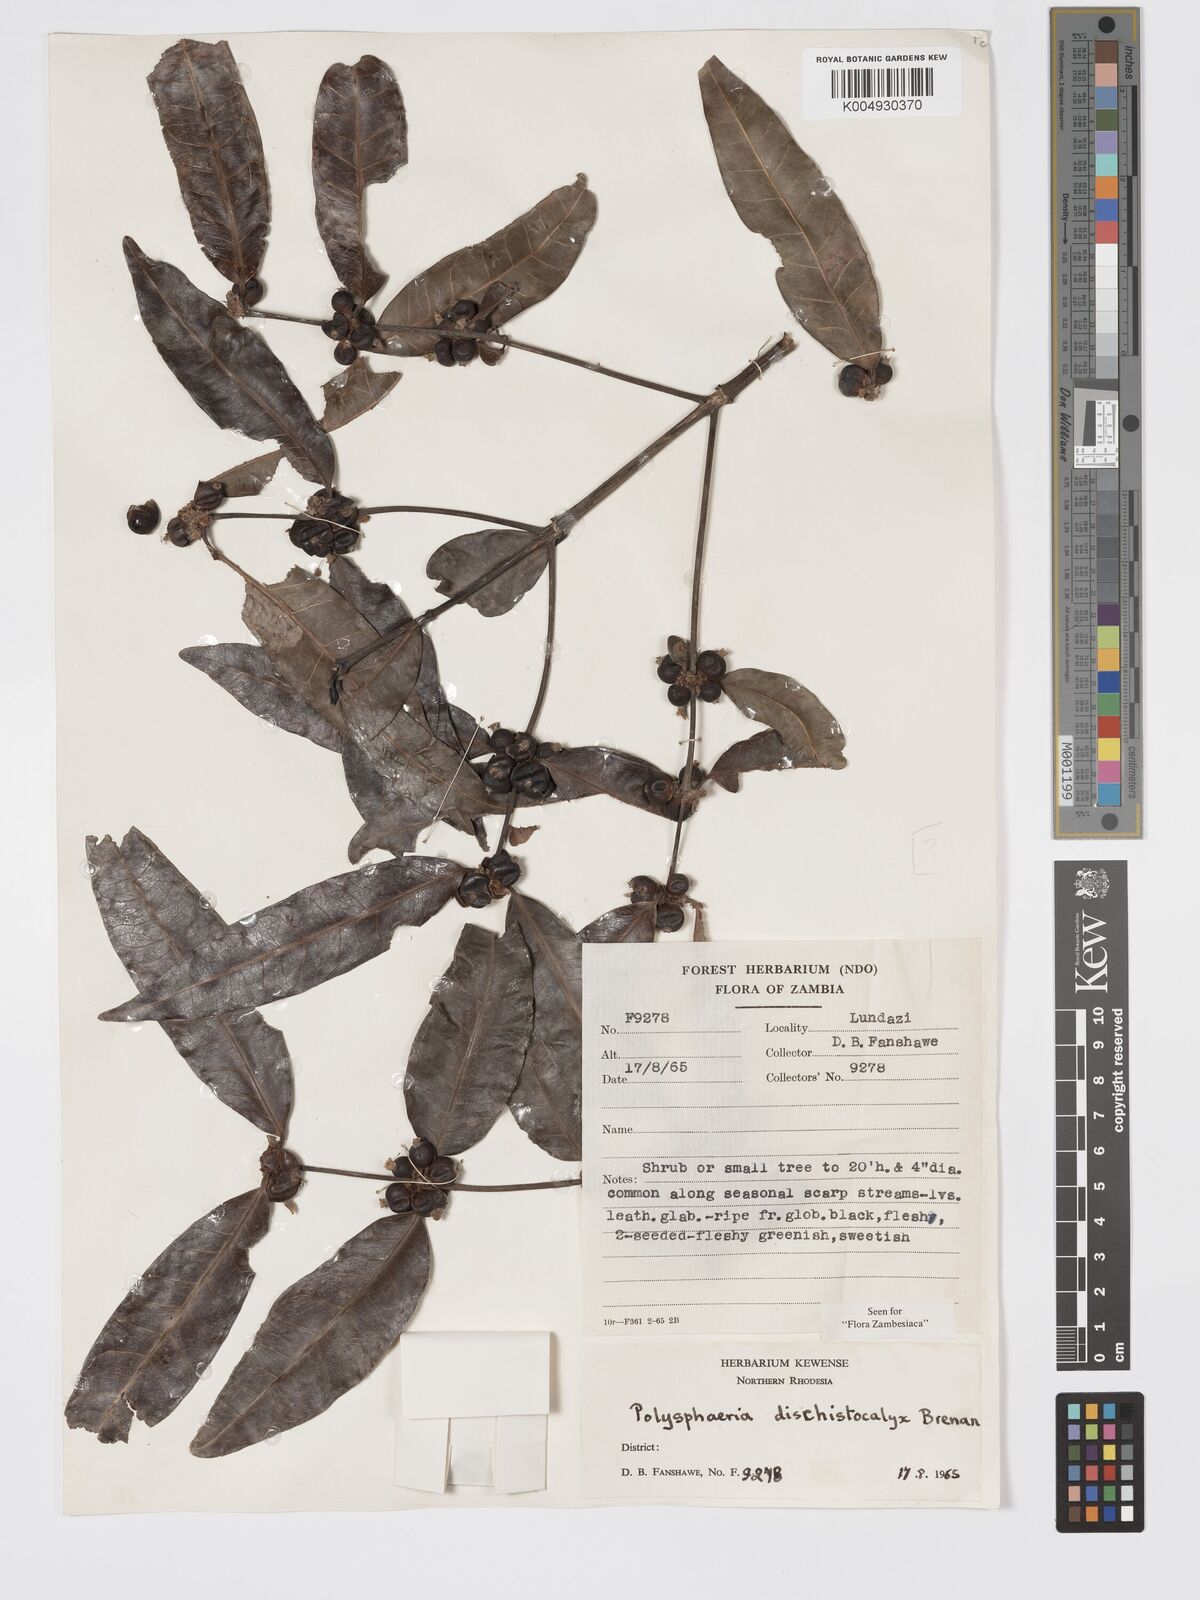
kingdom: Plantae
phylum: Tracheophyta
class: Magnoliopsida
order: Gentianales
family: Rubiaceae
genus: Polysphaeria
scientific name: Polysphaeria dischistocalyx
